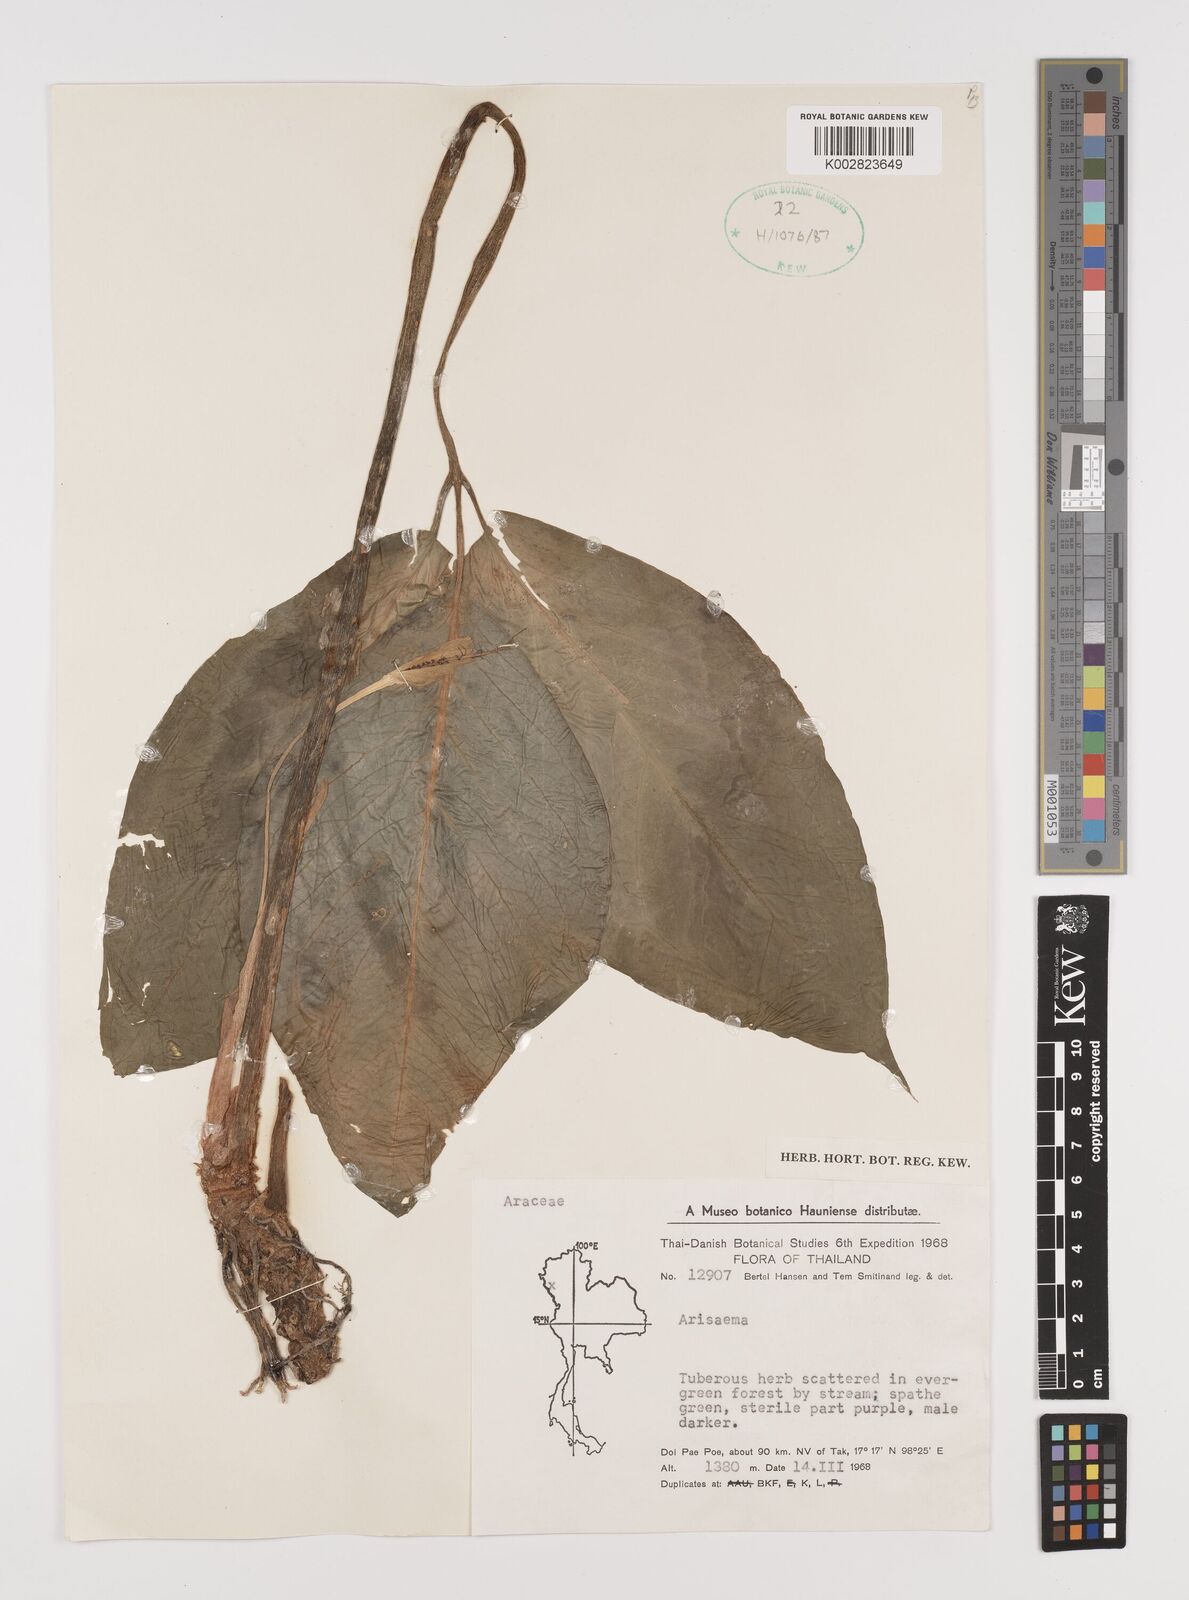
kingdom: Plantae
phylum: Tracheophyta
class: Liliopsida
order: Alismatales
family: Araceae
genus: Arisaema
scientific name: Arisaema
